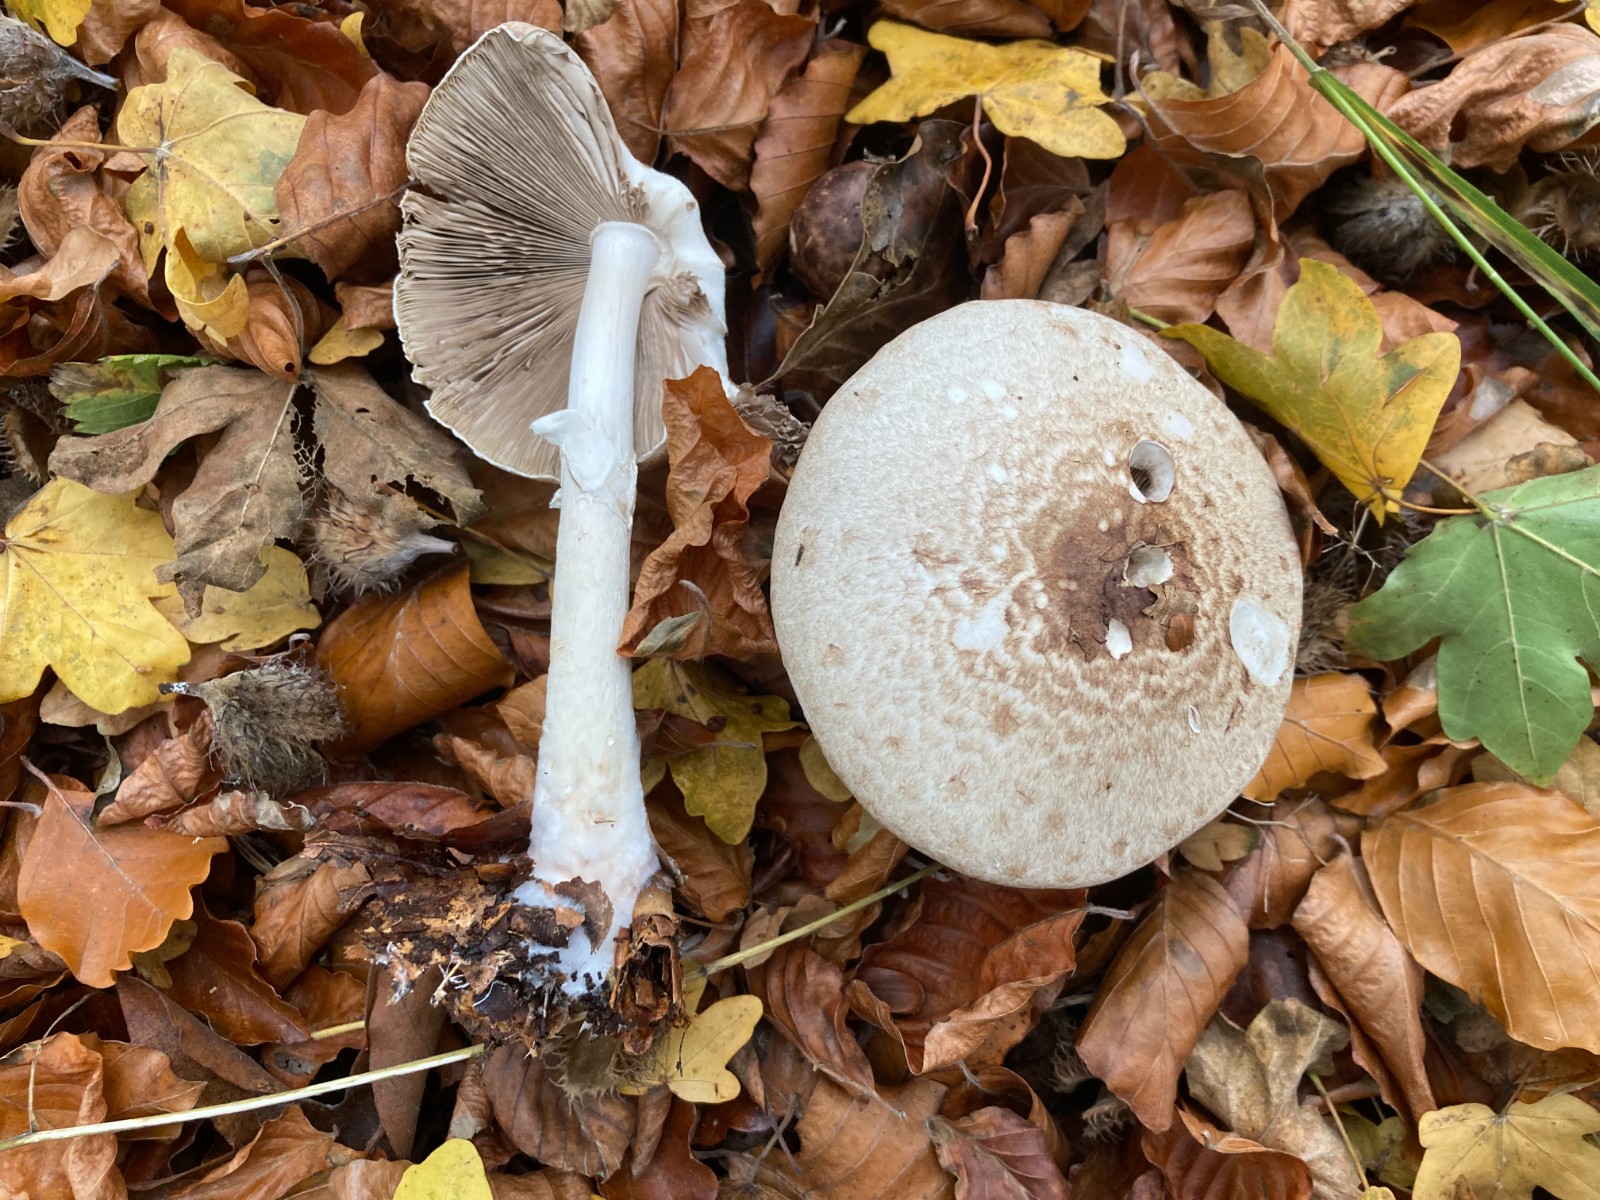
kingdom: Fungi
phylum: Basidiomycota
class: Agaricomycetes
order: Agaricales
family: Agaricaceae
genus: Agaricus
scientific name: Agaricus impudicus
